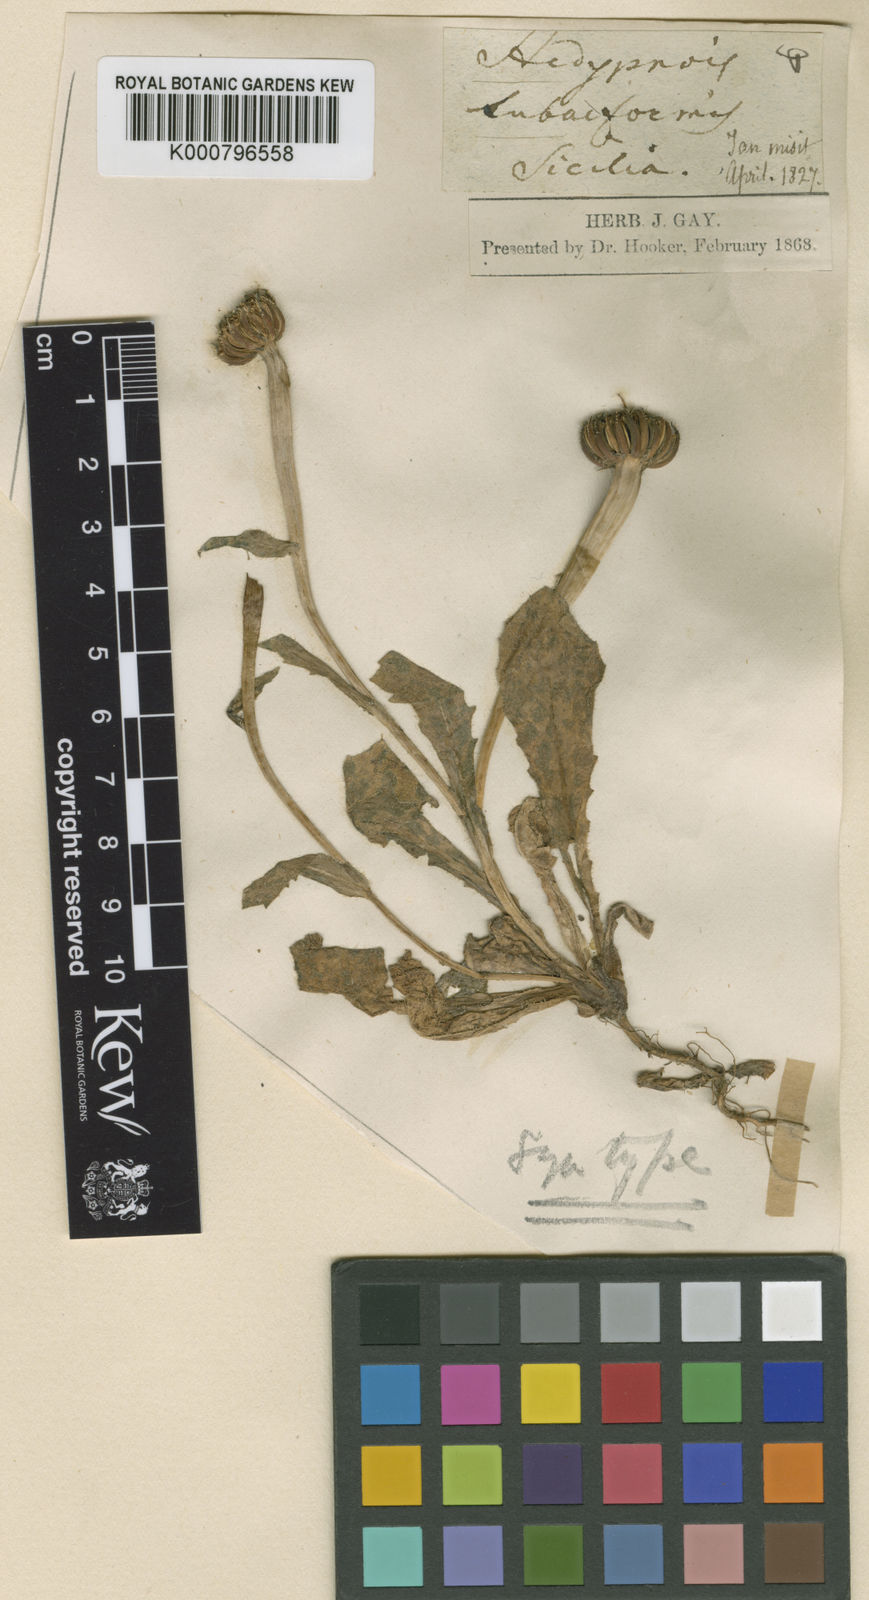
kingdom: Plantae
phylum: Tracheophyta
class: Magnoliopsida
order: Asterales
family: Asteraceae
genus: Hedypnois
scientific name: Hedypnois rhagadioloides
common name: Cretan weed
